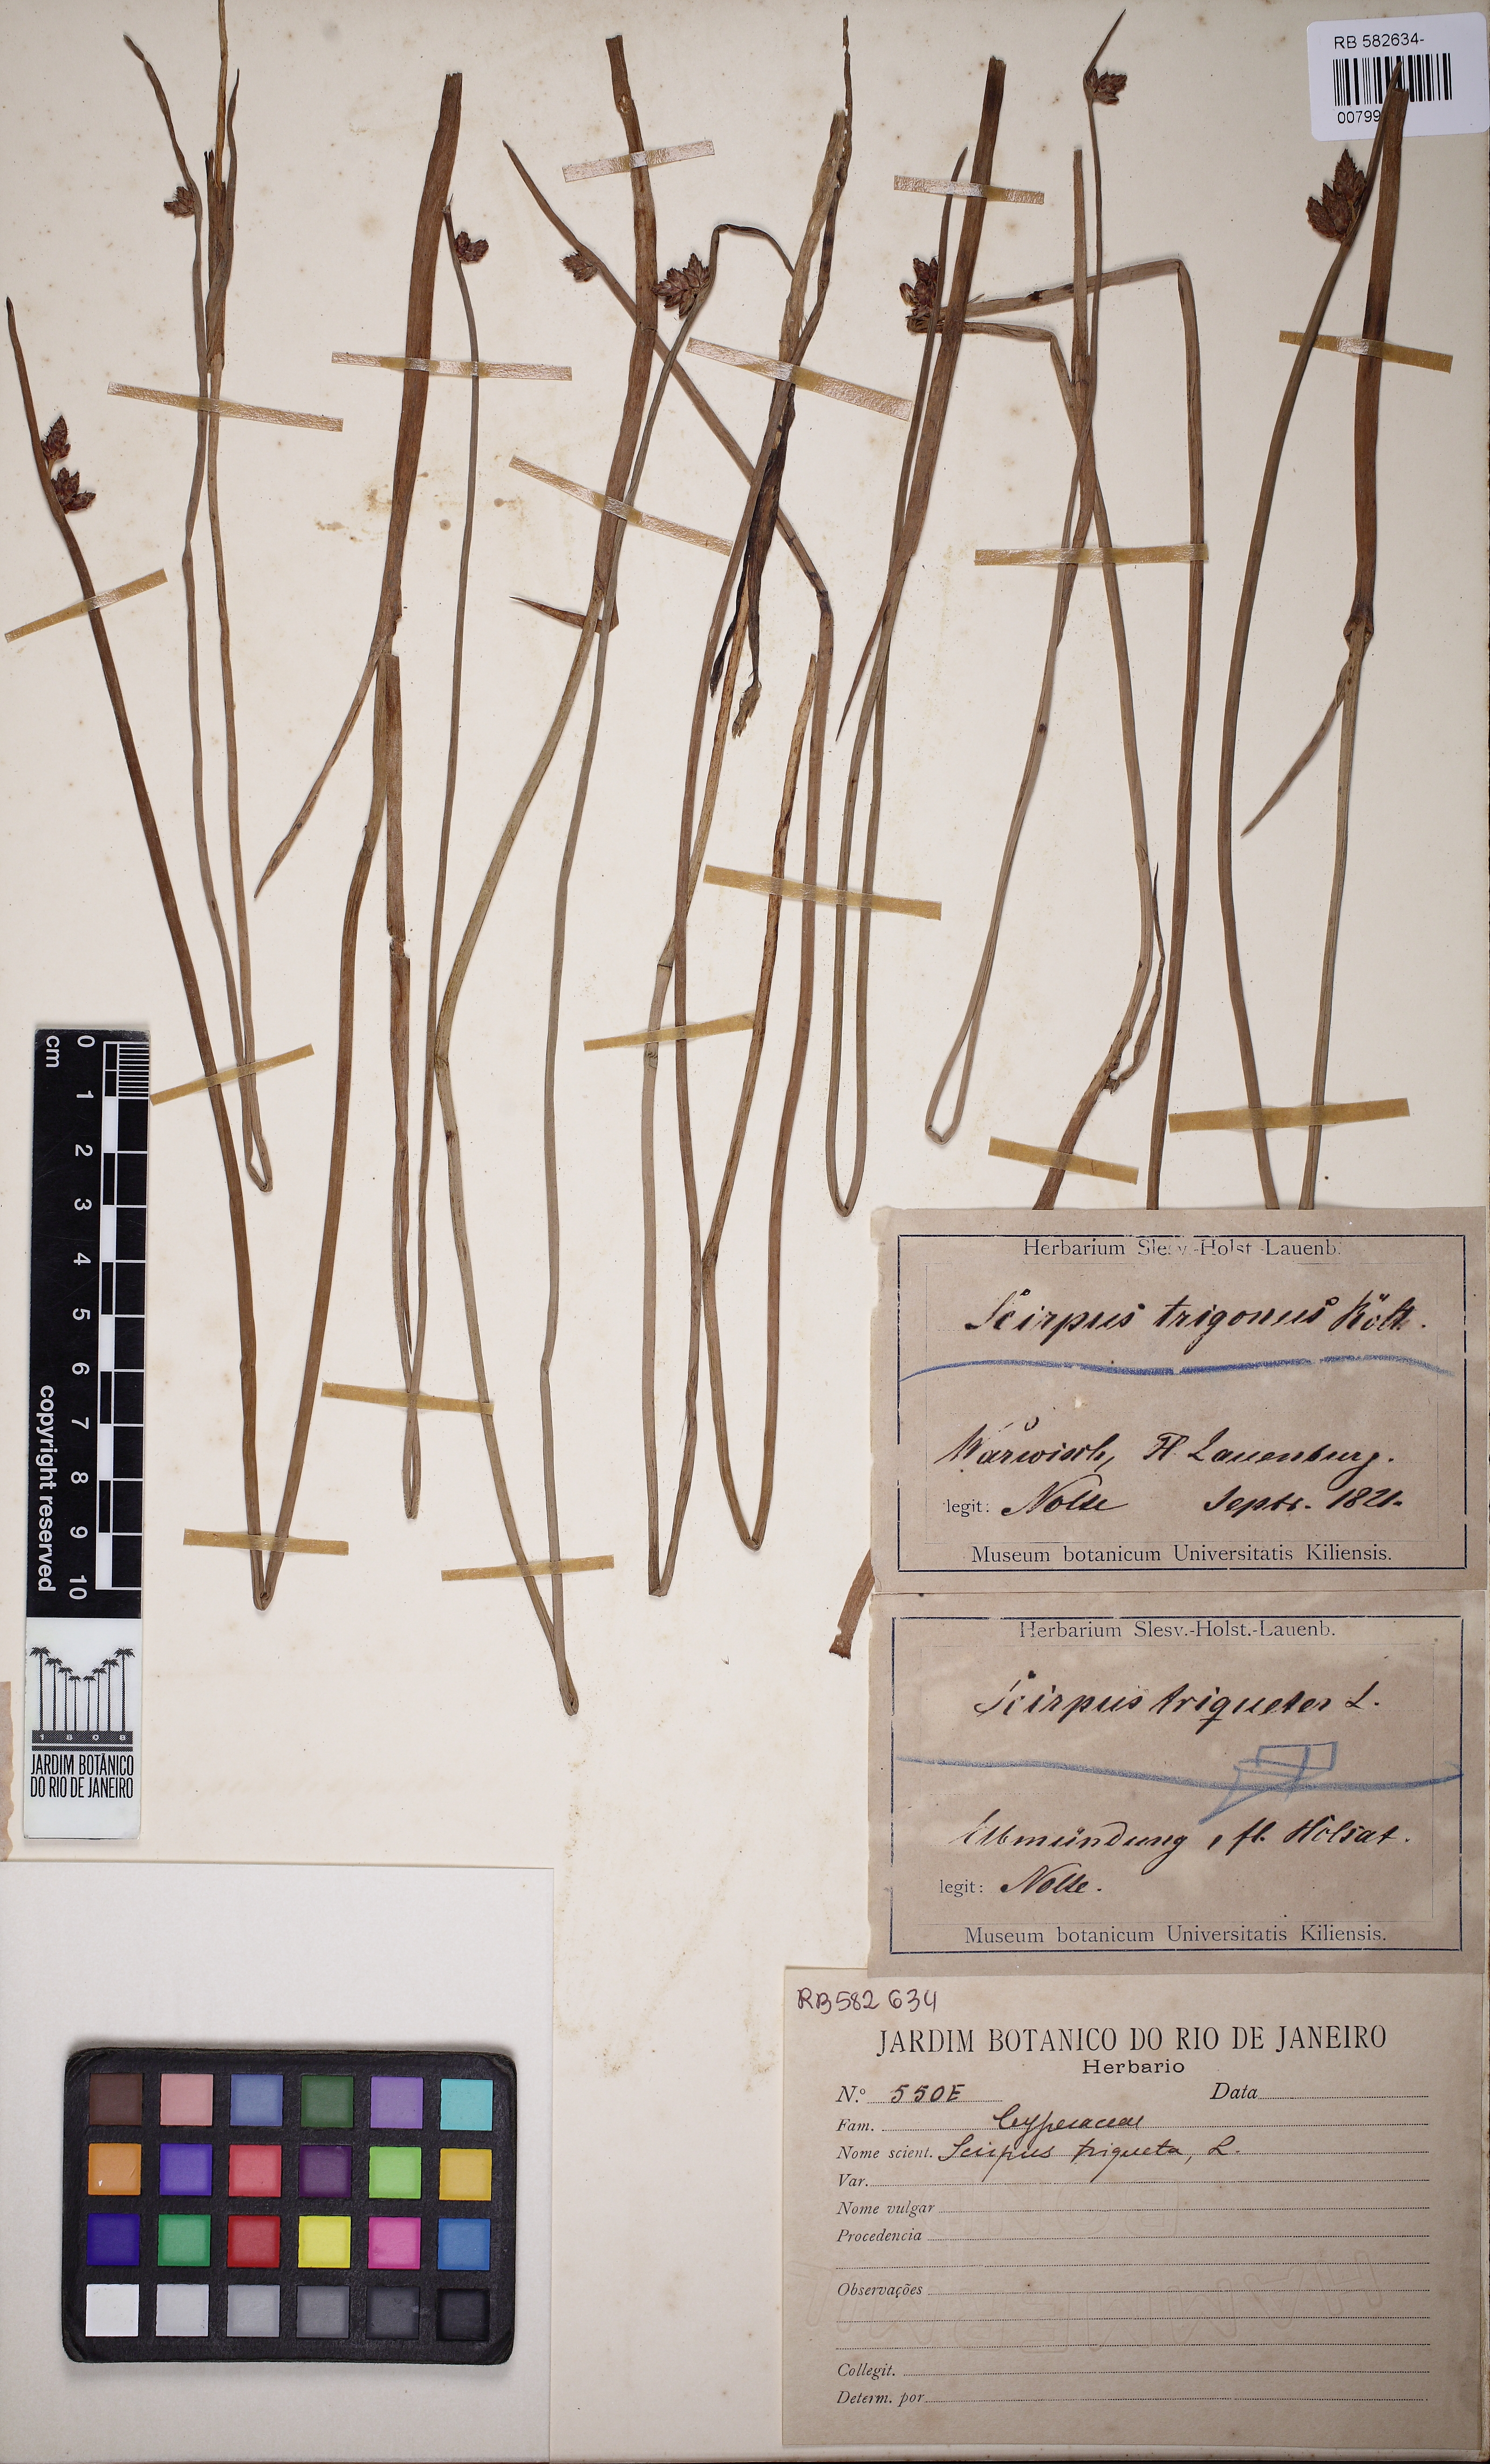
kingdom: Plantae
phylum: Tracheophyta
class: Liliopsida
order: Poales
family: Cyperaceae
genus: Schoenoplectus
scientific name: Schoenoplectus triqueter
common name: Triangular club-rush
